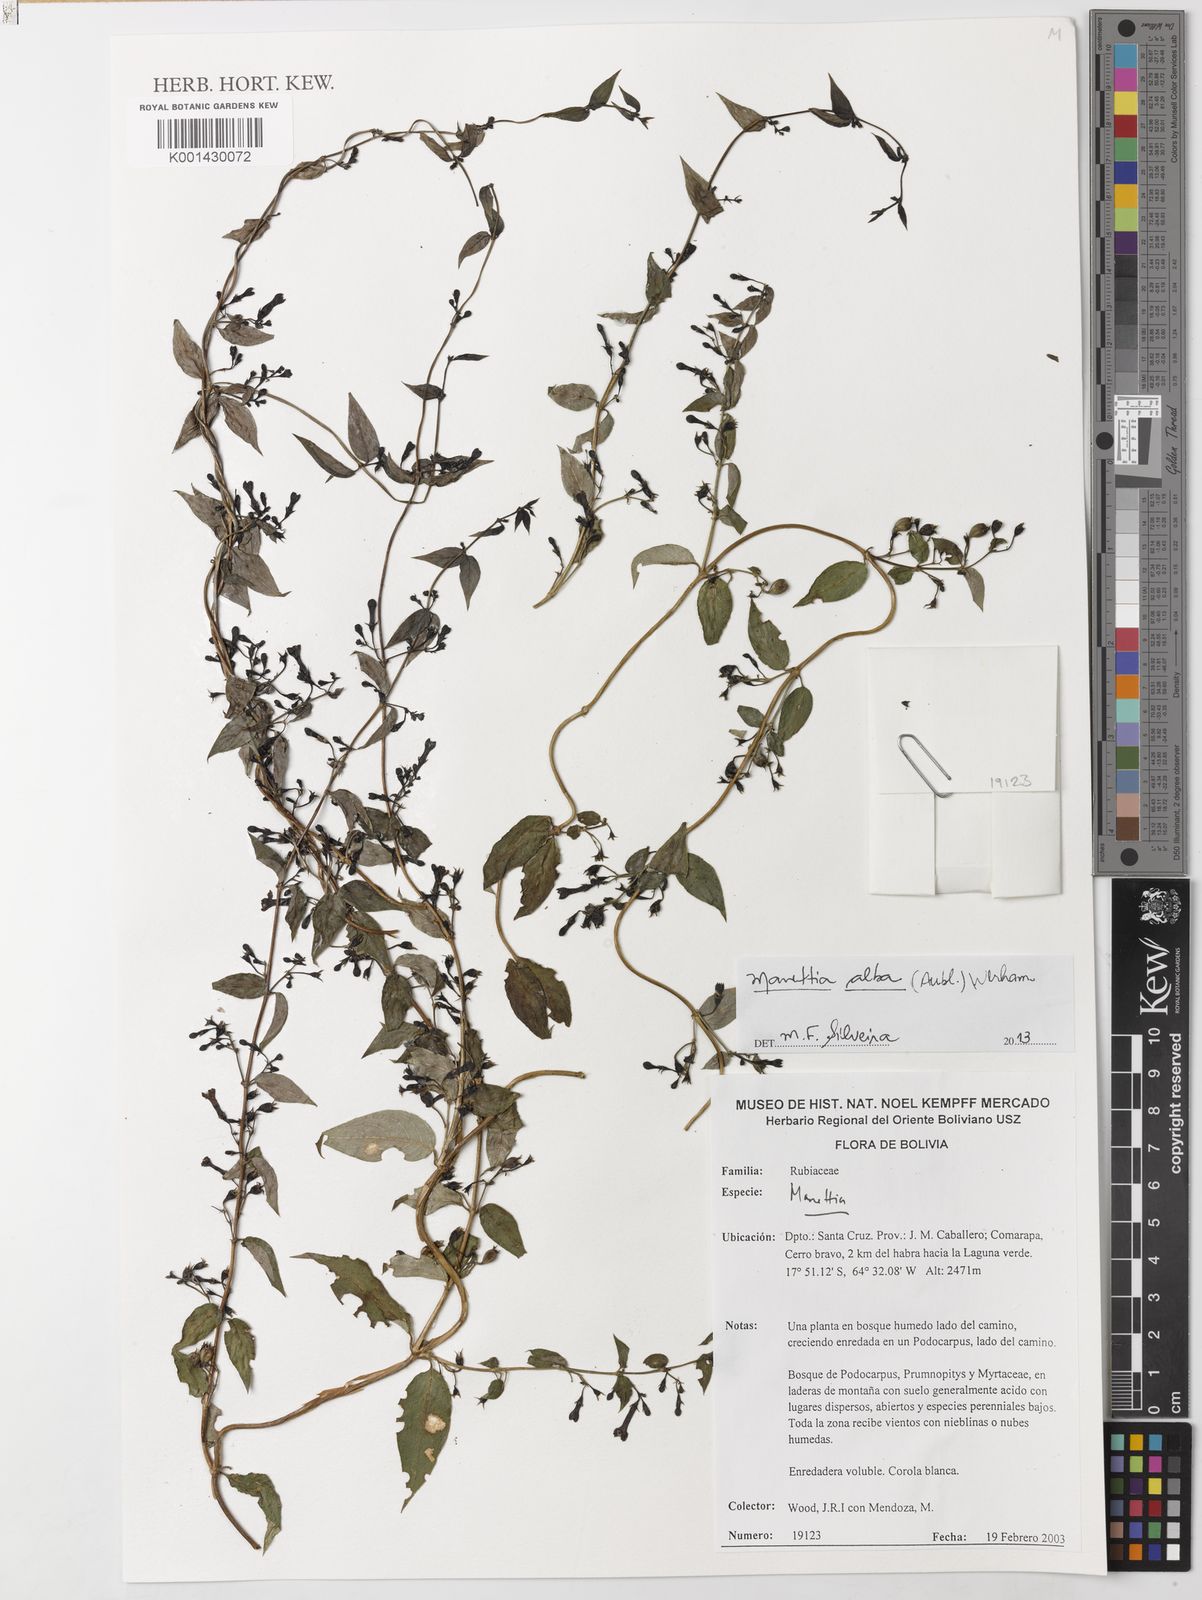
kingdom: Plantae
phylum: Tracheophyta
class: Magnoliopsida
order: Gentianales
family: Rubiaceae
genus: Manettia
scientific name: Manettia
